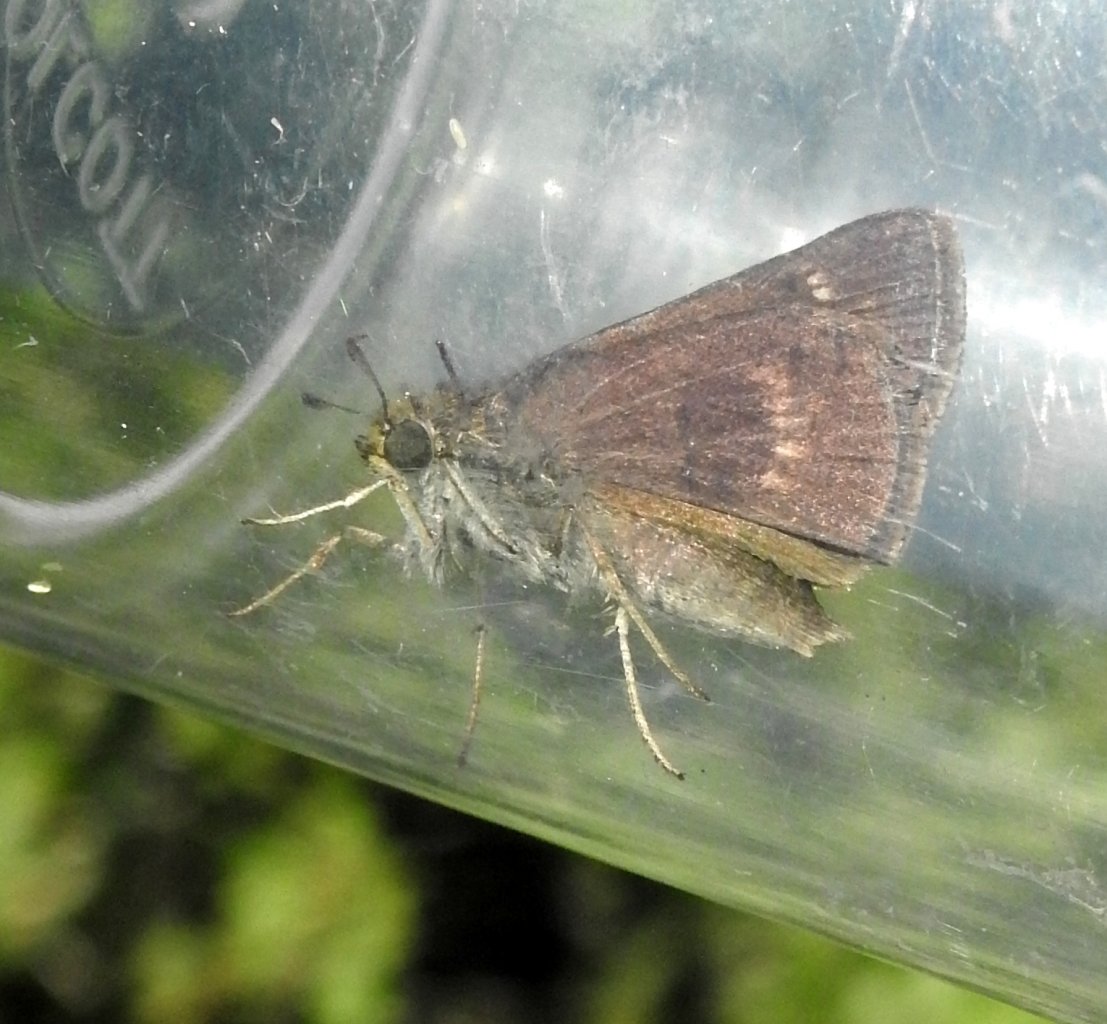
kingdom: Animalia
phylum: Arthropoda
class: Insecta
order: Lepidoptera
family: Hesperiidae
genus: Euphyes
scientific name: Euphyes vestris
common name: Dun Skipper
